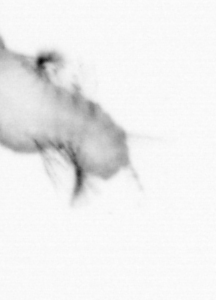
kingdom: Animalia
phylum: Annelida
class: Polychaeta
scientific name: Polychaeta
